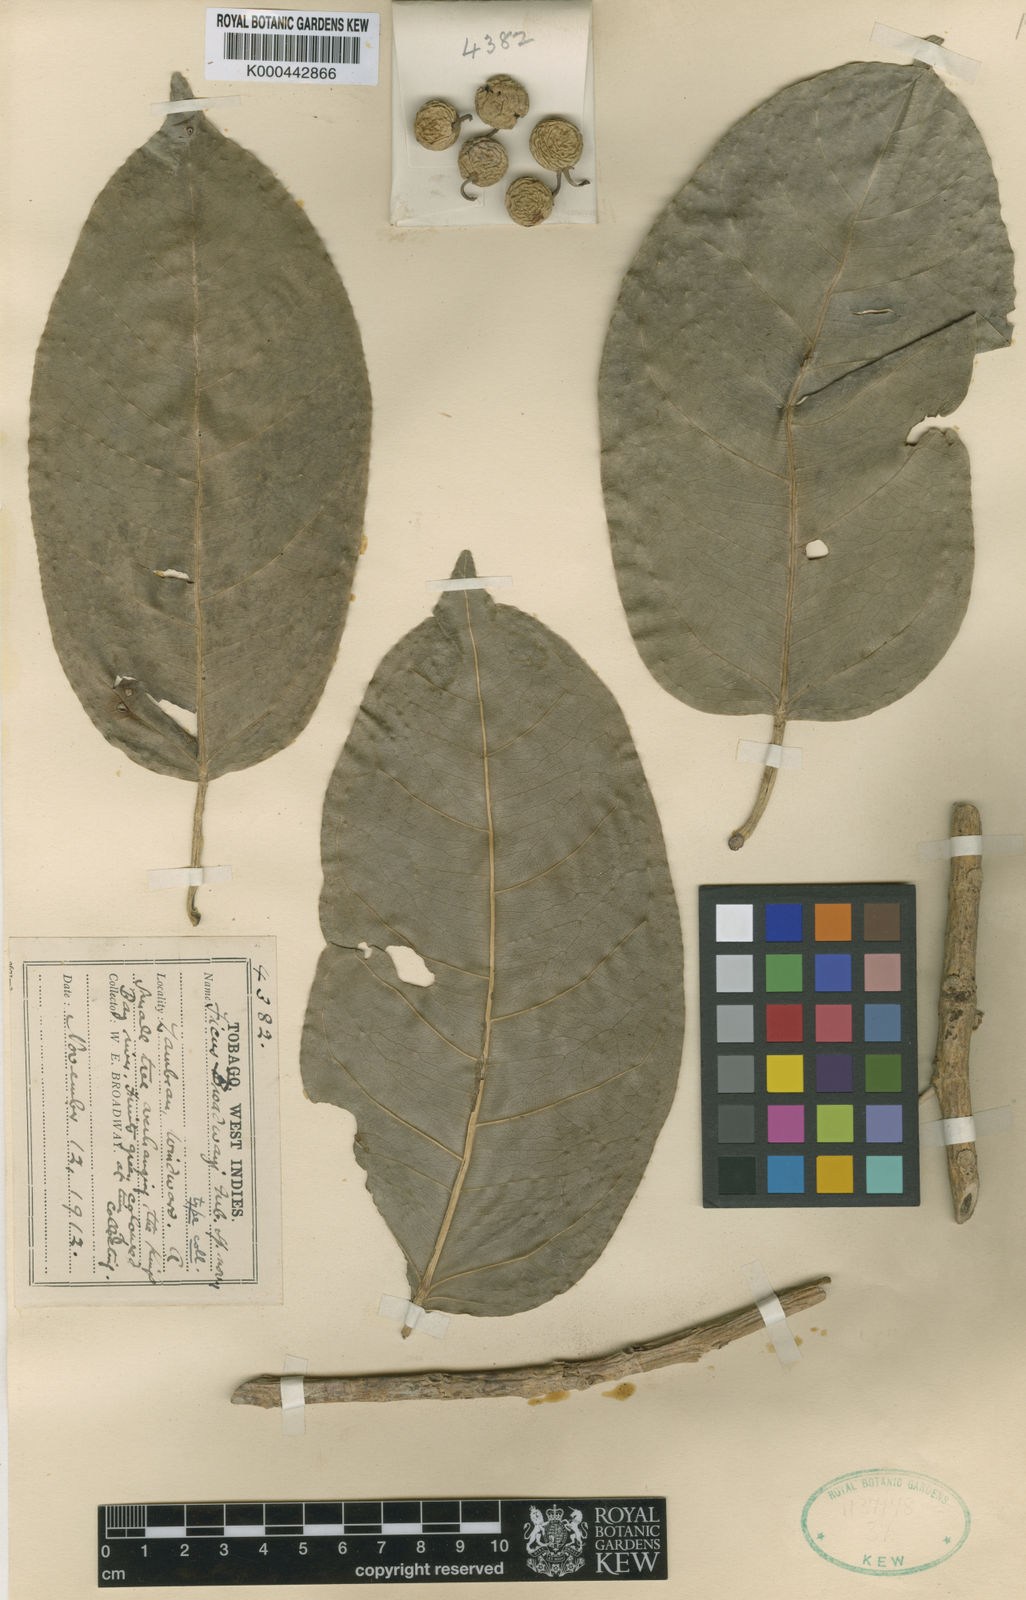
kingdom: Plantae
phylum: Tracheophyta
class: Magnoliopsida
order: Rosales
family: Moraceae
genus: Ficus
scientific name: Ficus broadwayi
